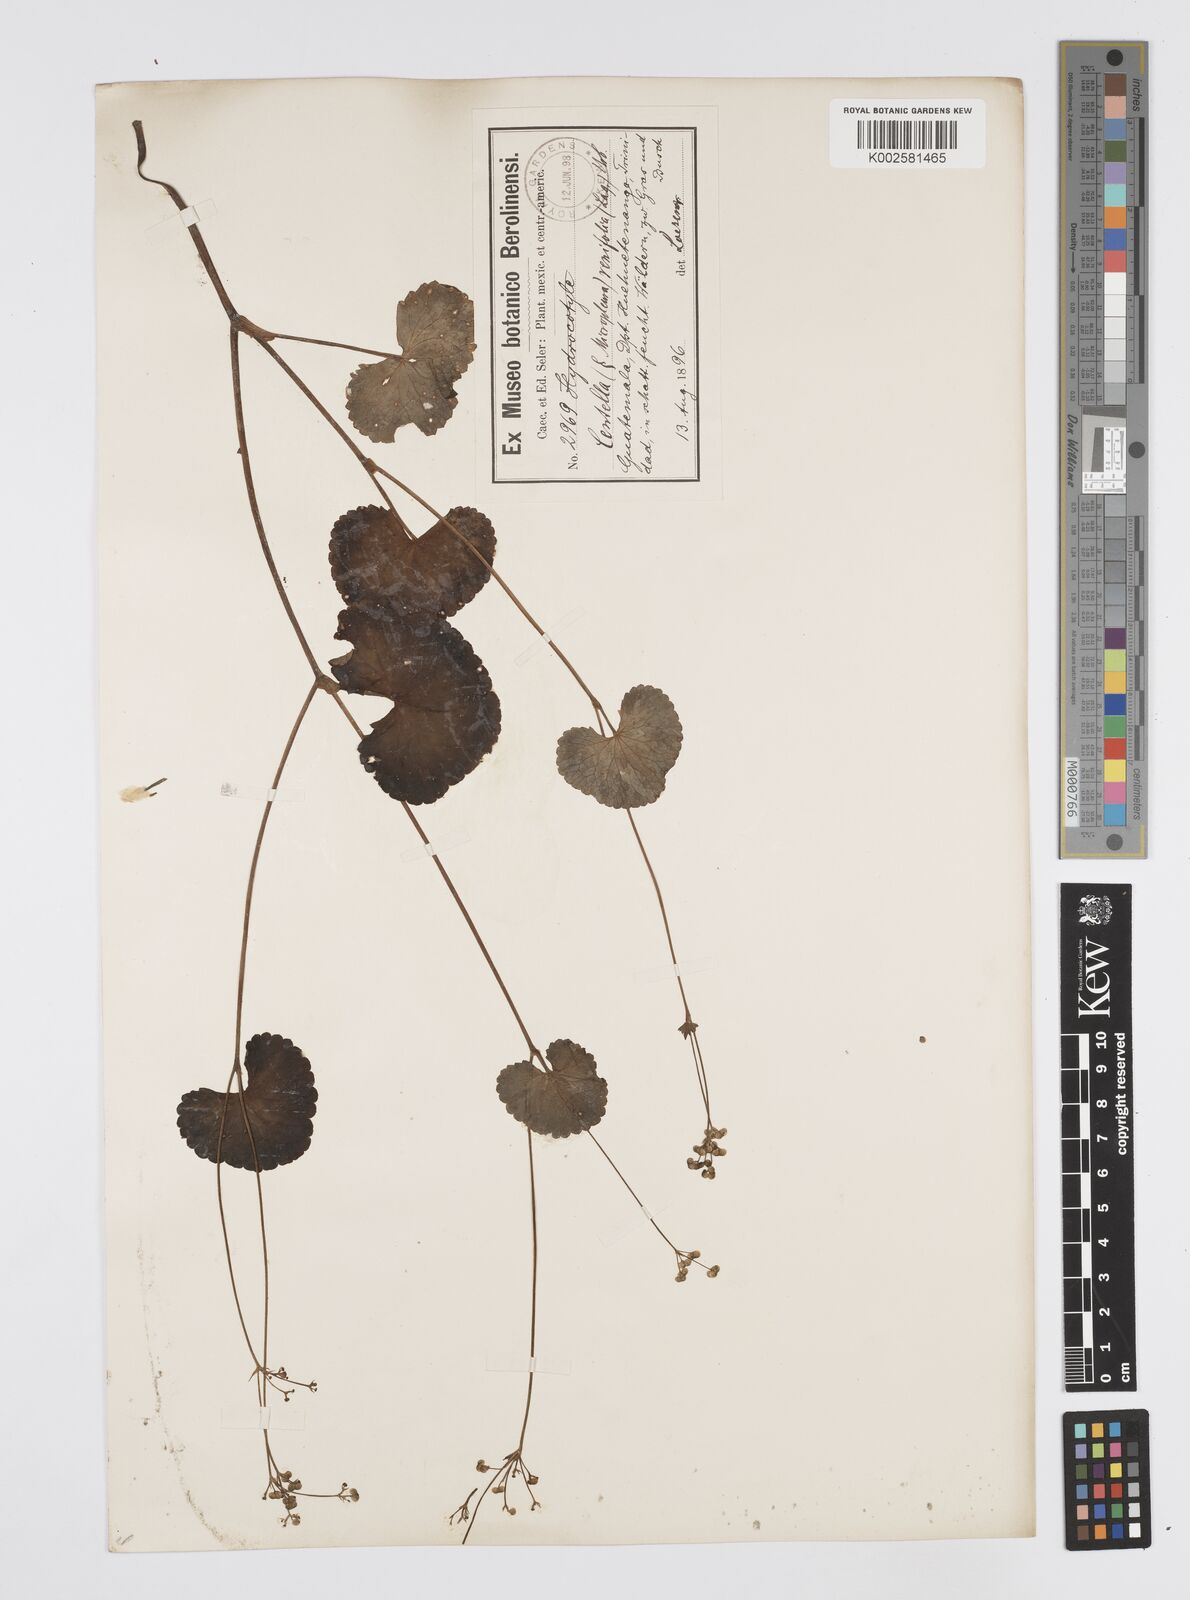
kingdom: Plantae
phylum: Tracheophyta
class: Magnoliopsida
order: Apiales
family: Apiaceae
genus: Micropleura
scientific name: Micropleura renifolia
